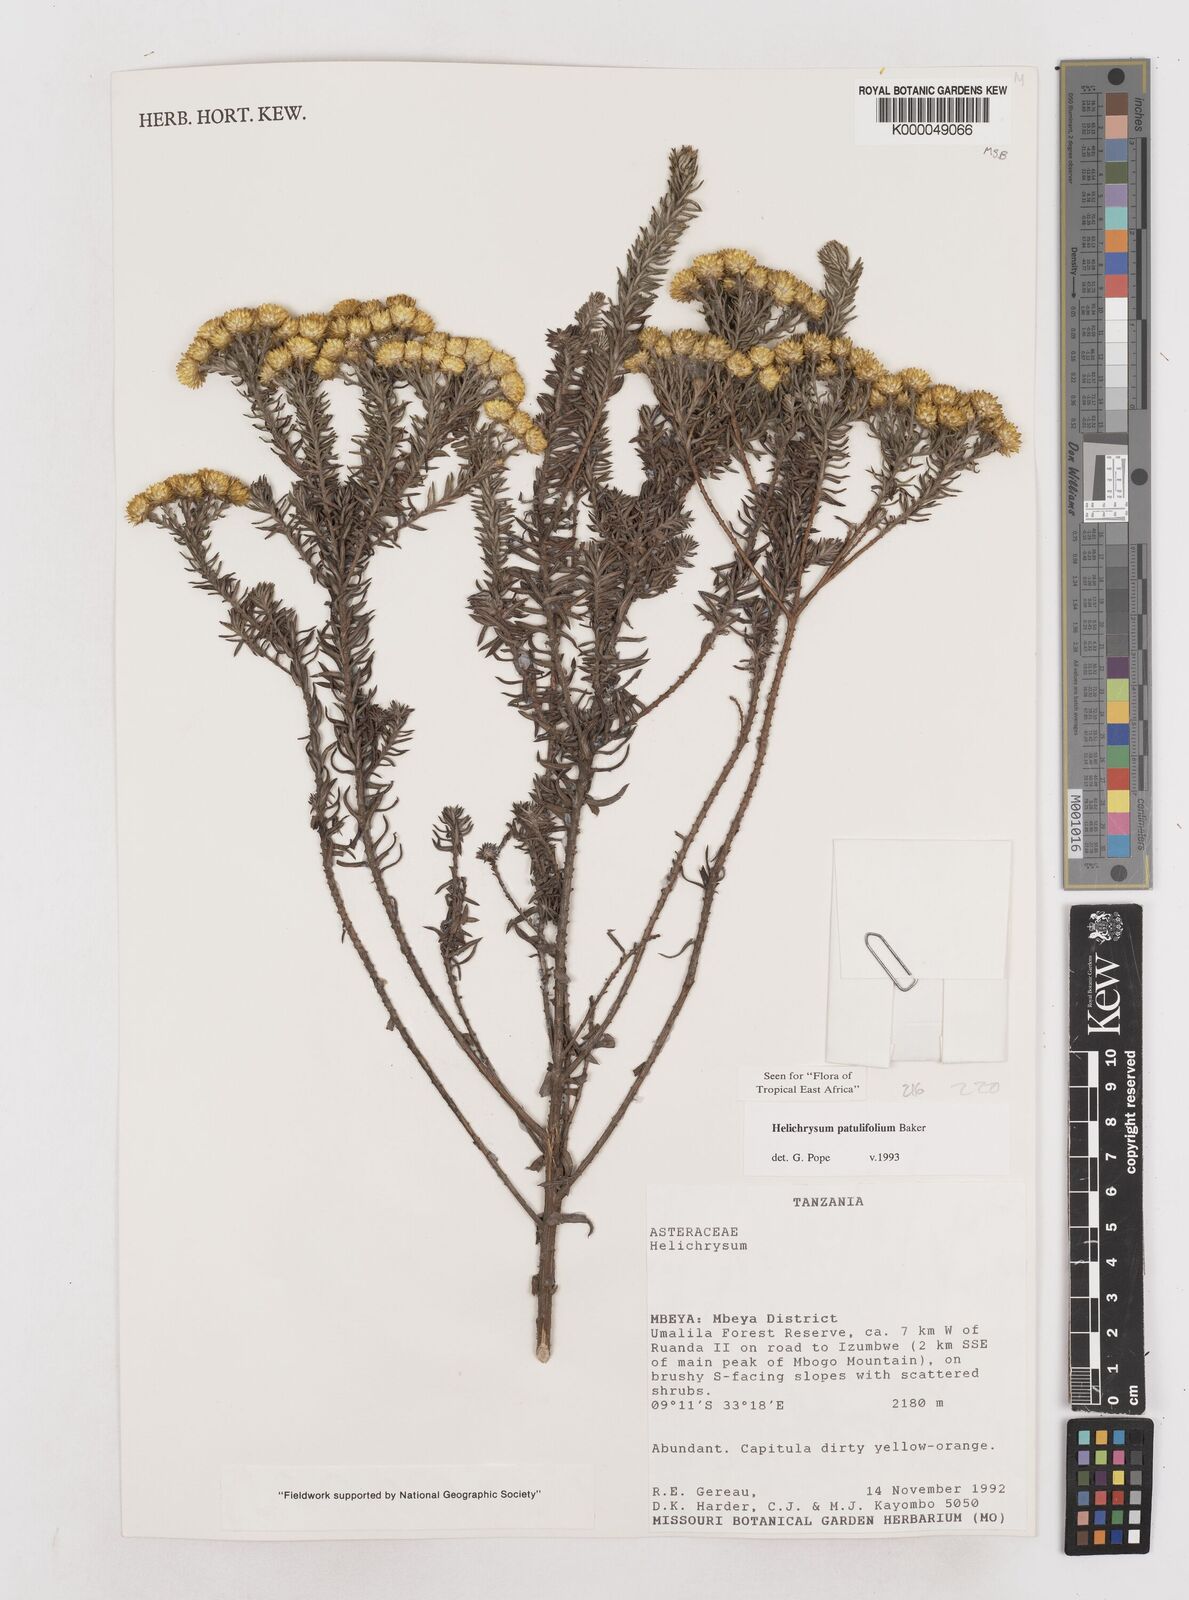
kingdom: Plantae
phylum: Tracheophyta
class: Magnoliopsida
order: Asterales
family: Asteraceae
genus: Helichrysum
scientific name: Helichrysum patulifolium
